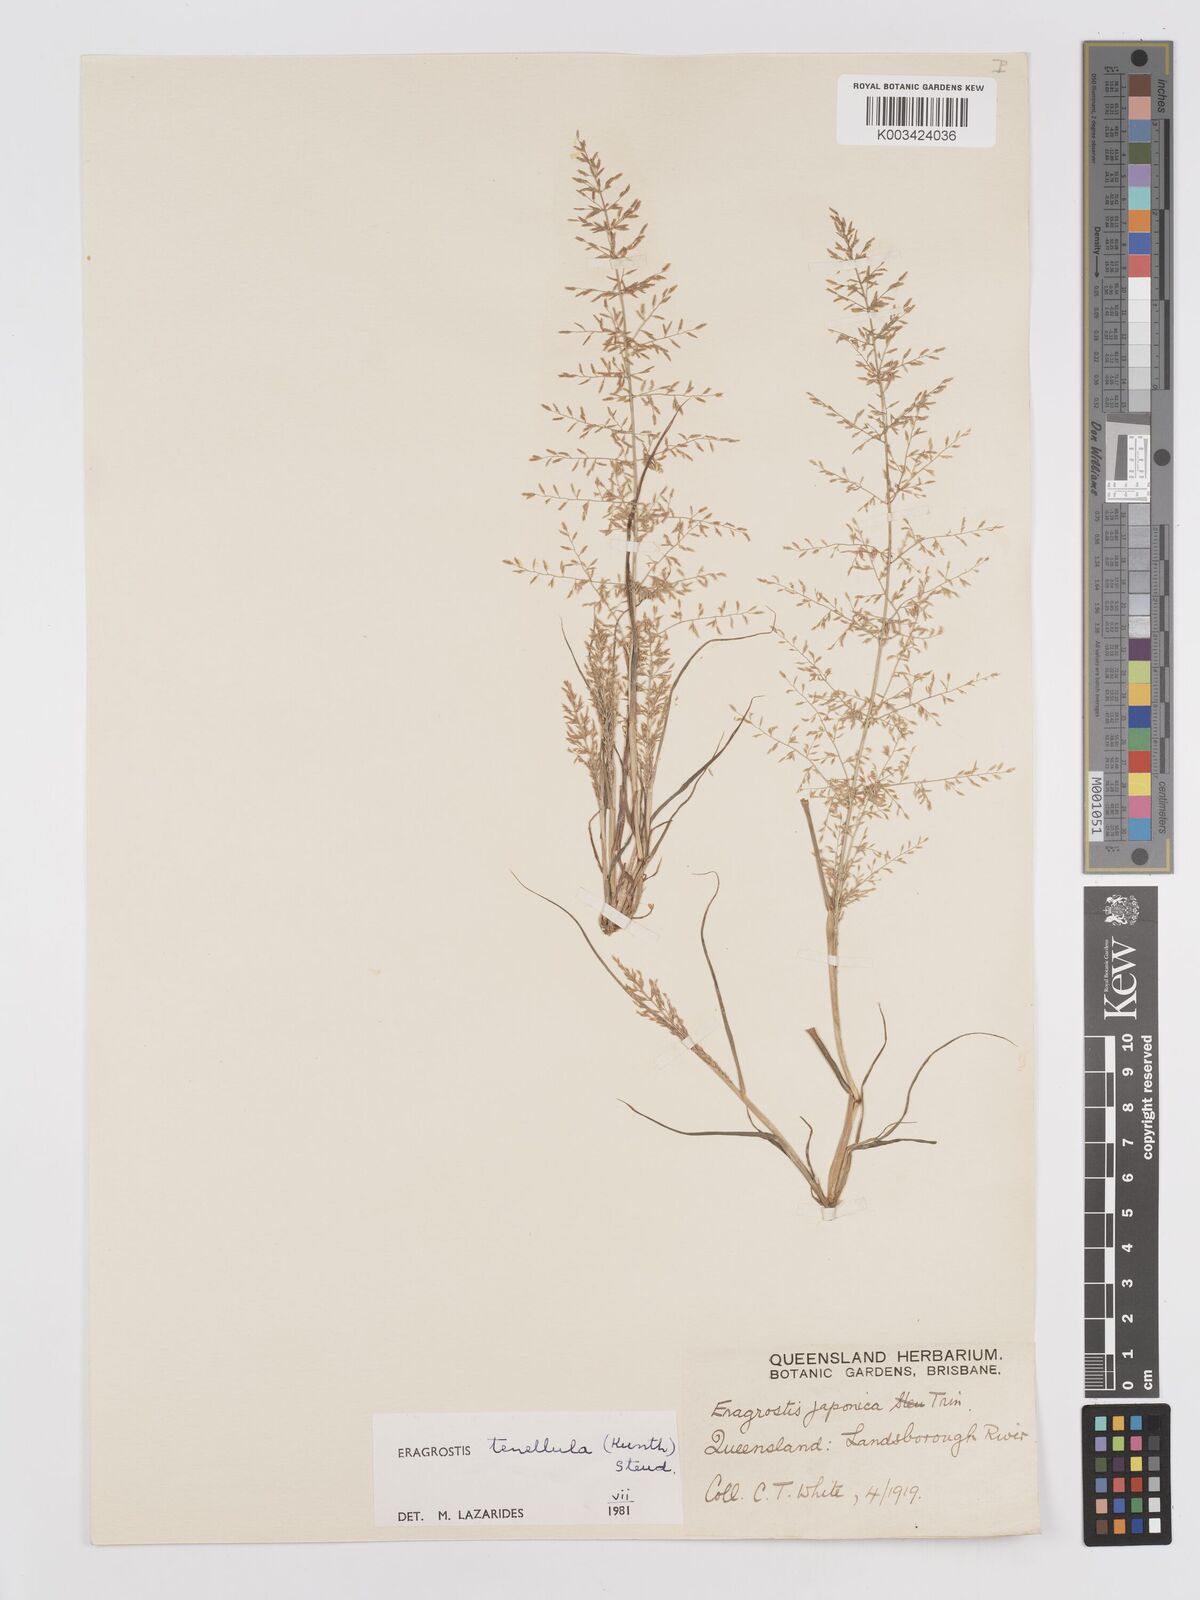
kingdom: Plantae
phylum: Tracheophyta
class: Liliopsida
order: Poales
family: Poaceae
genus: Eragrostis
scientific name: Eragrostis tenellula
